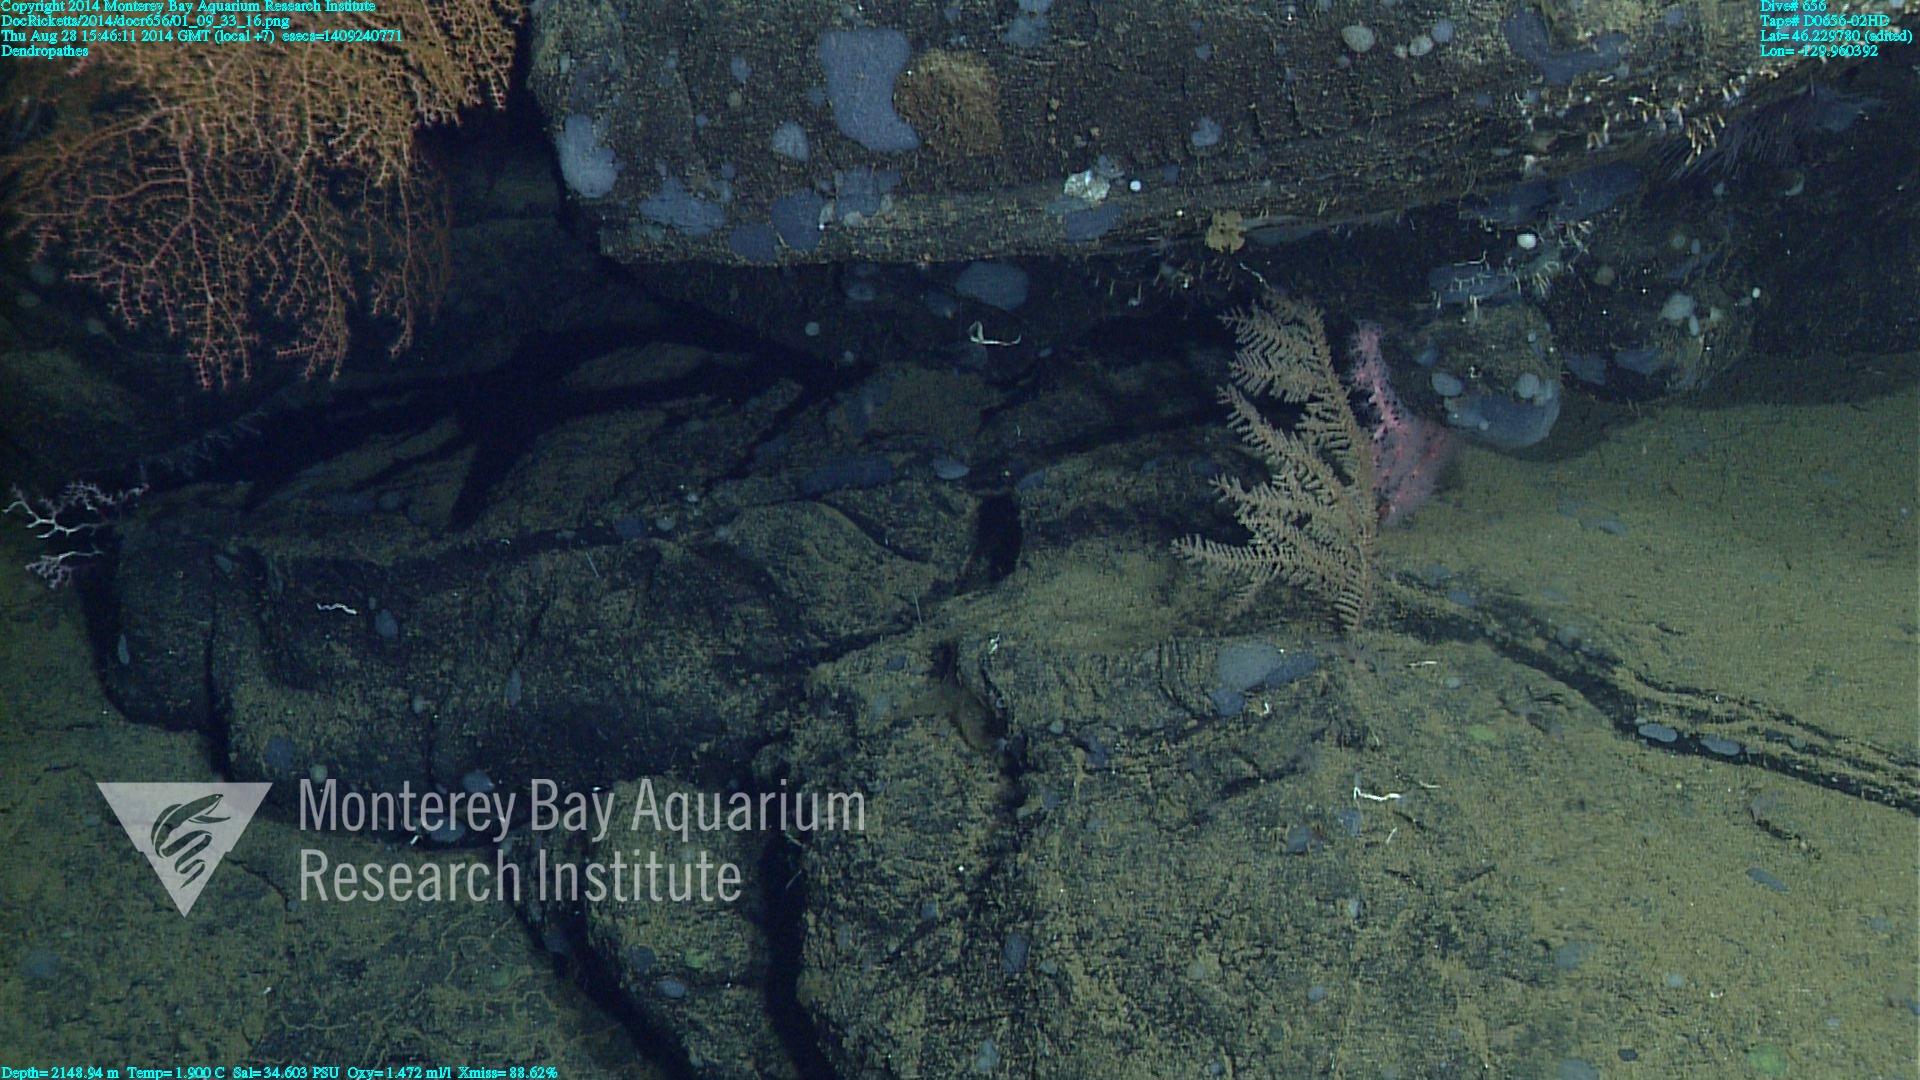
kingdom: Animalia
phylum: Cnidaria
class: Anthozoa
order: Antipatharia
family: Schizopathidae
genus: Dendropathes
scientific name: Dendropathes
